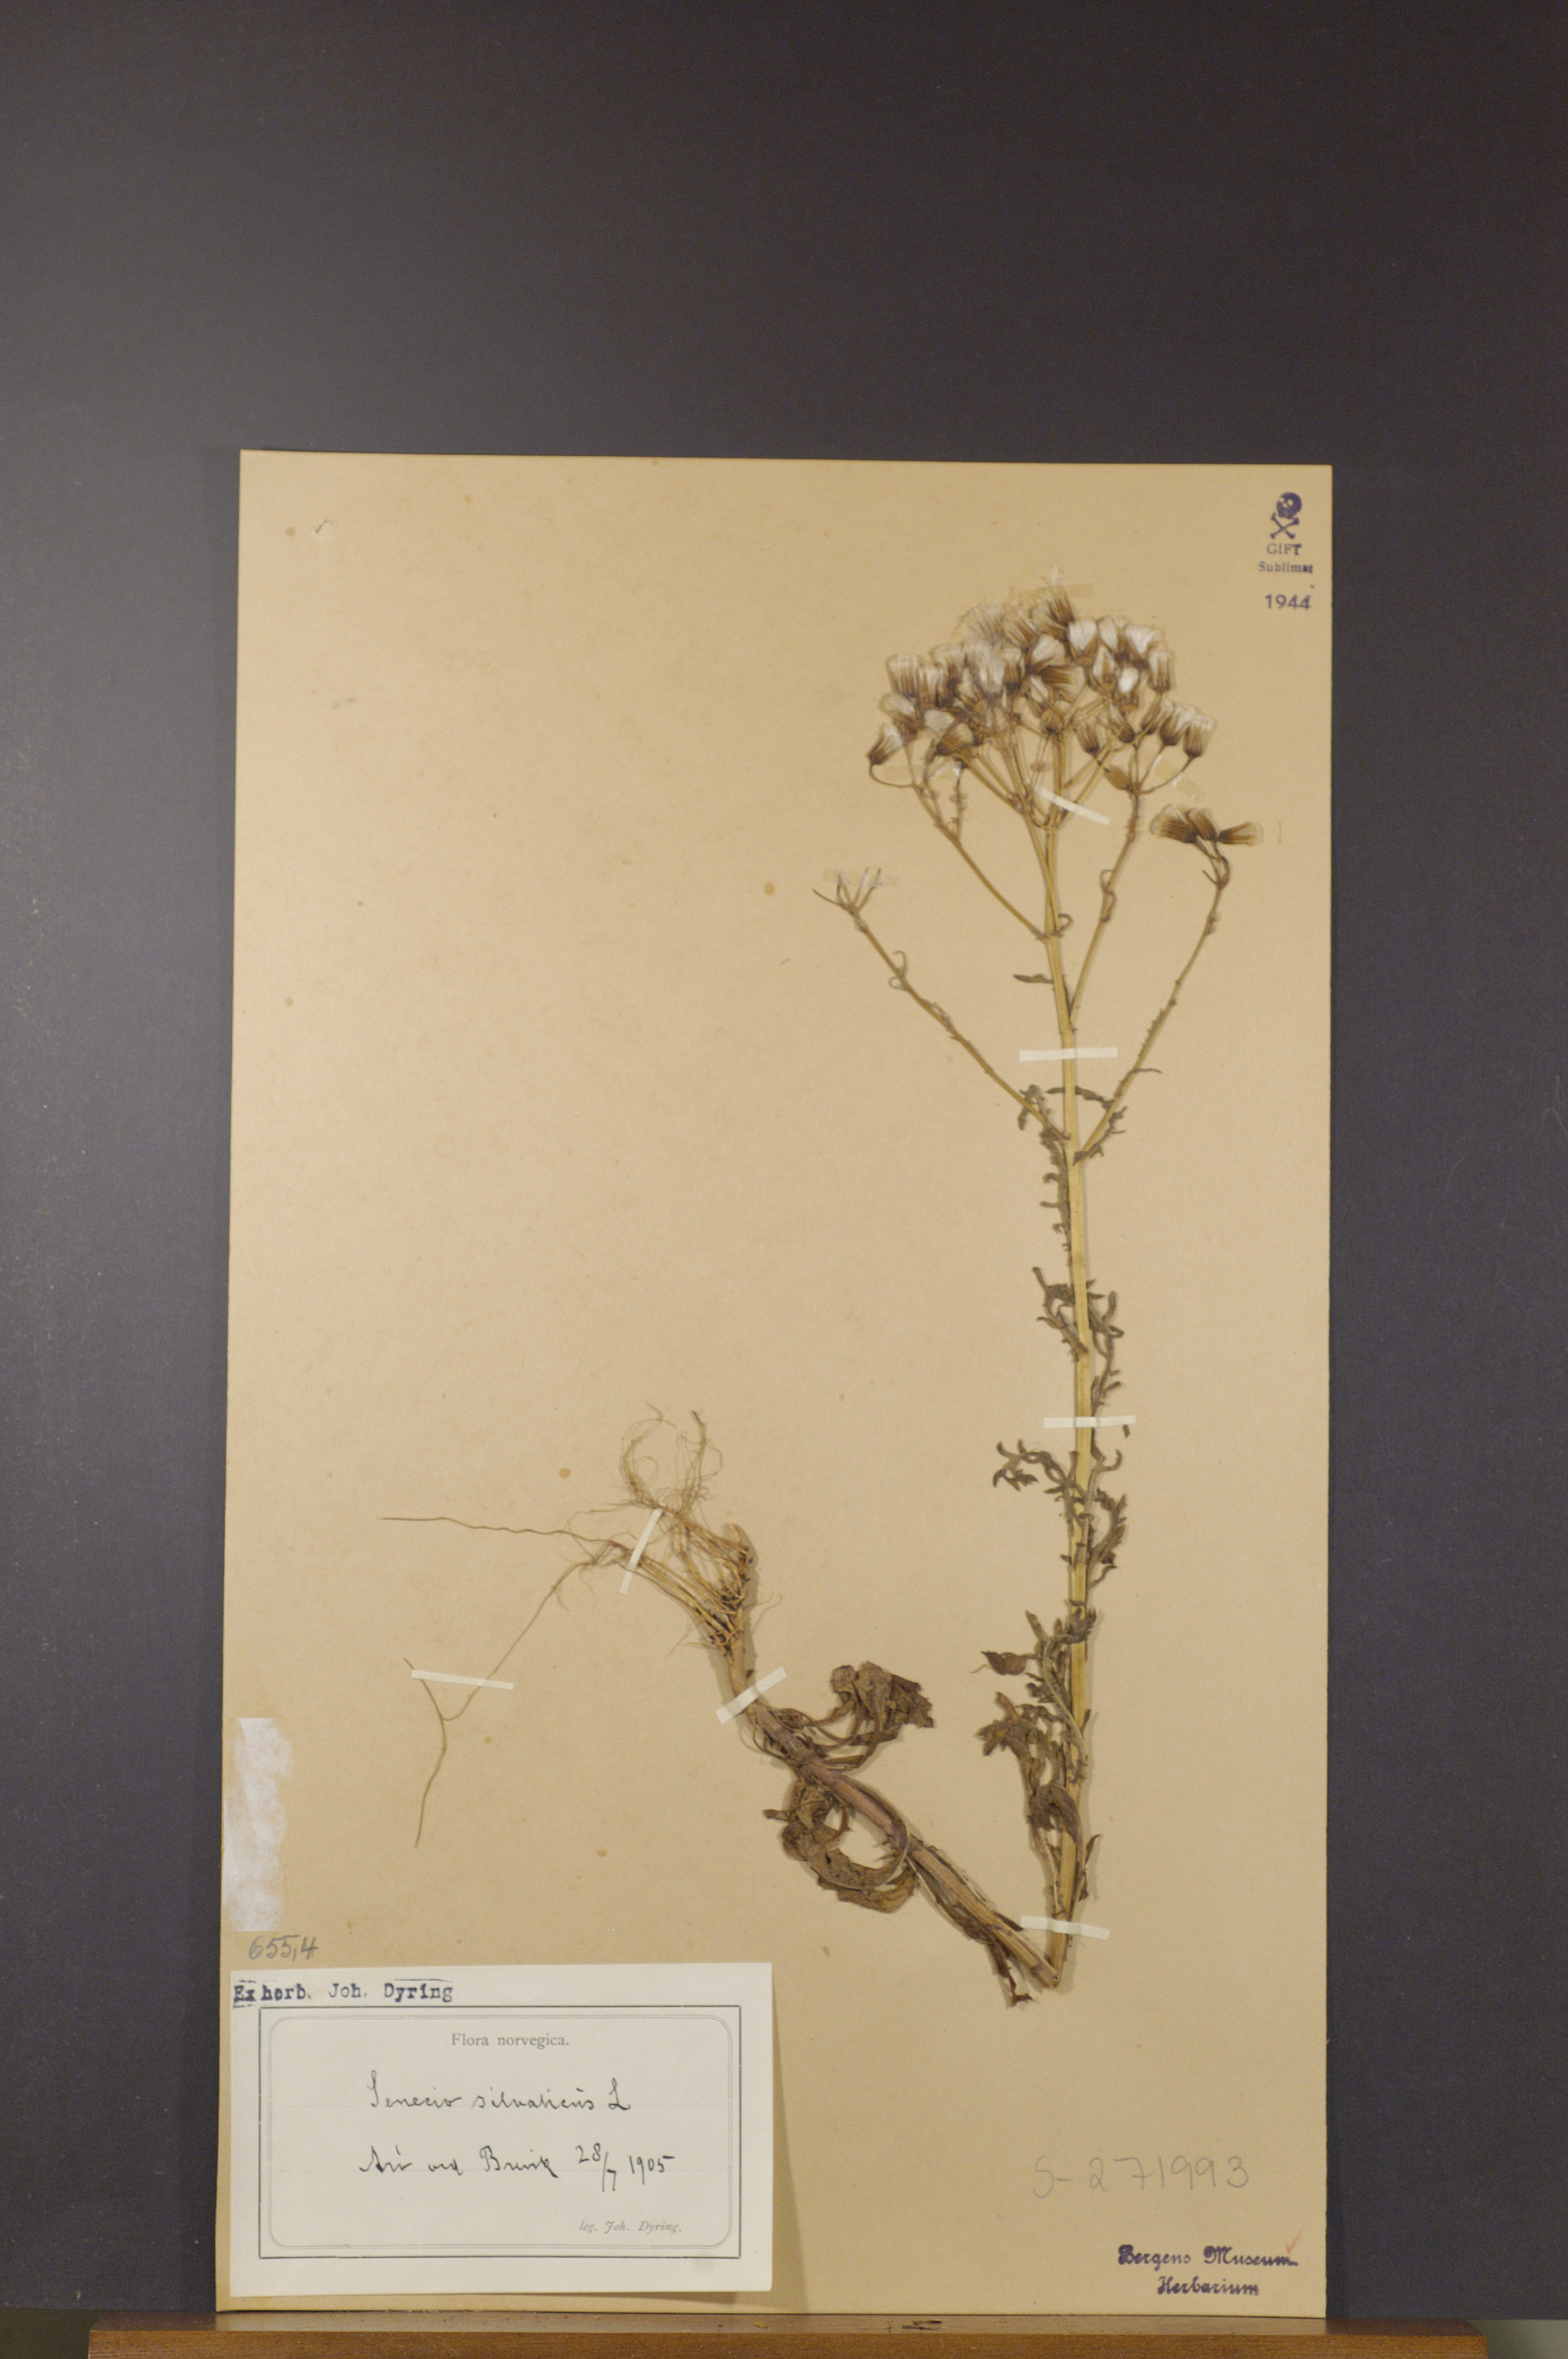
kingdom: Plantae
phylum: Tracheophyta
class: Magnoliopsida
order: Asterales
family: Asteraceae
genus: Senecio
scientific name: Senecio sylvaticus
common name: Woodland ragwort
